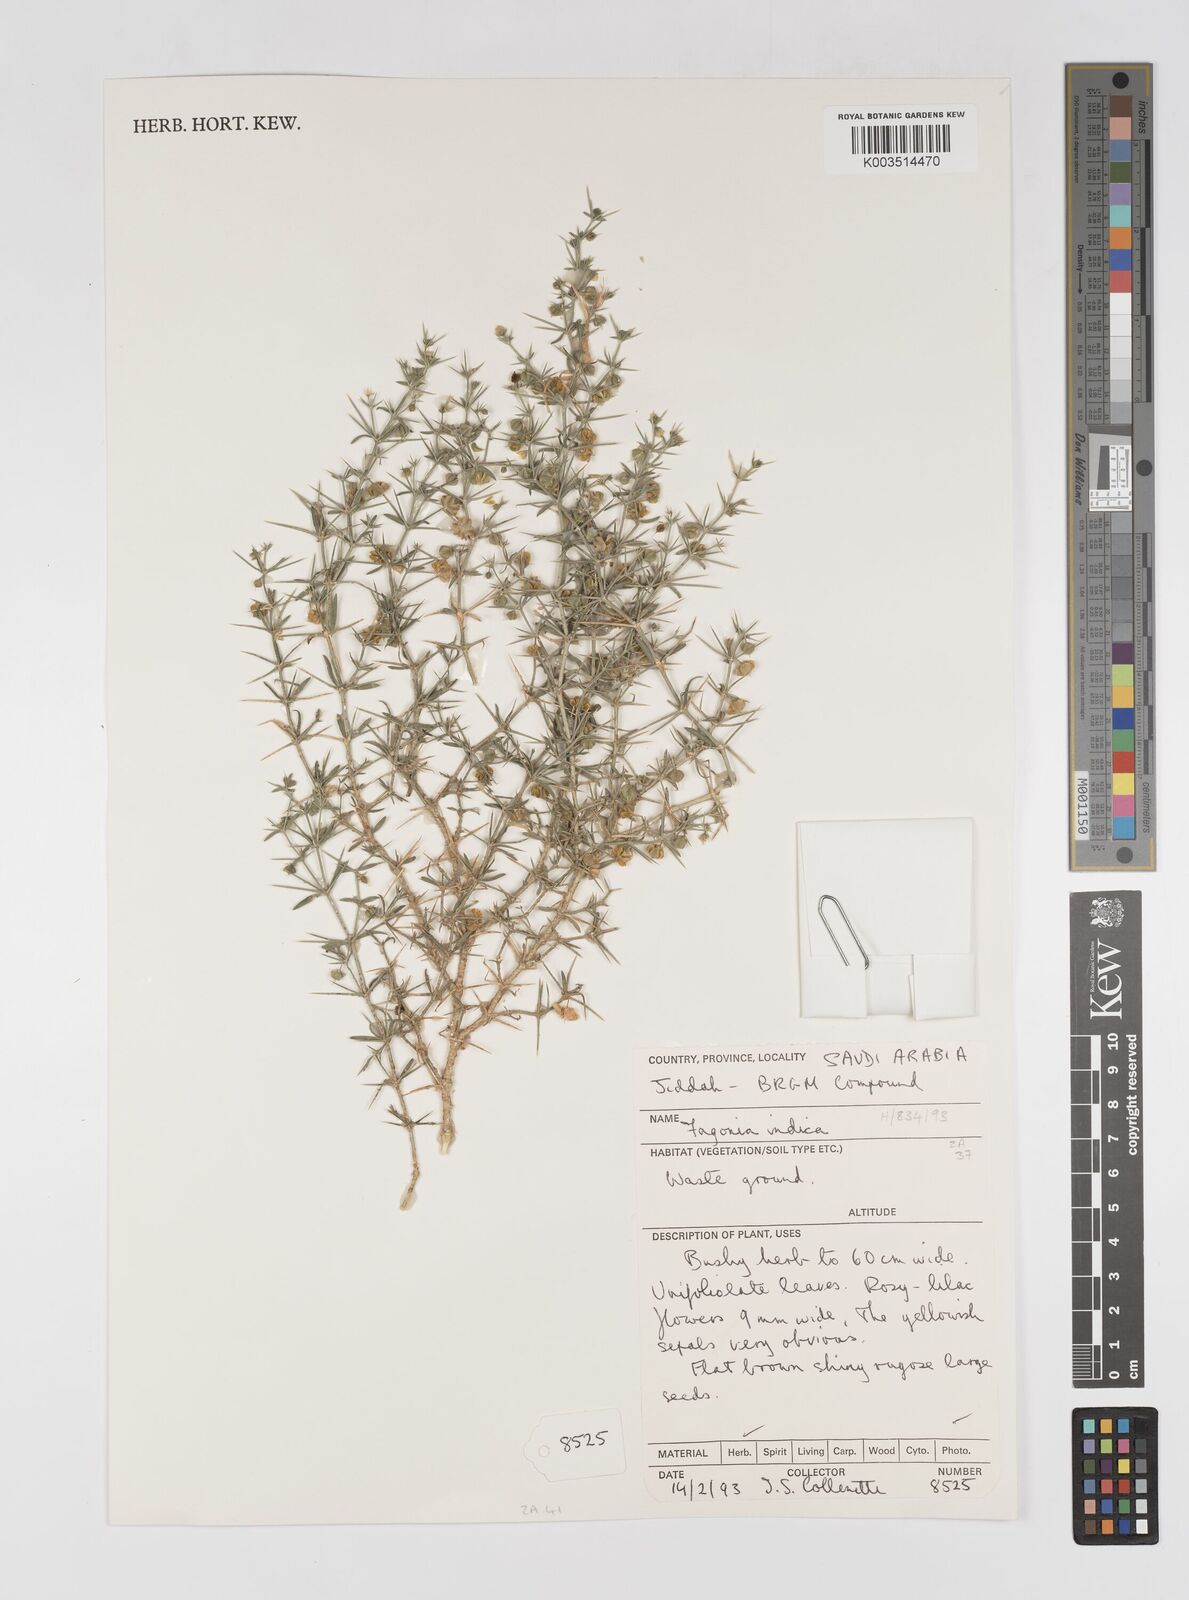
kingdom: Plantae
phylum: Tracheophyta
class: Magnoliopsida
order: Zygophyllales
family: Zygophyllaceae
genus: Fagonia
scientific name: Fagonia indica
